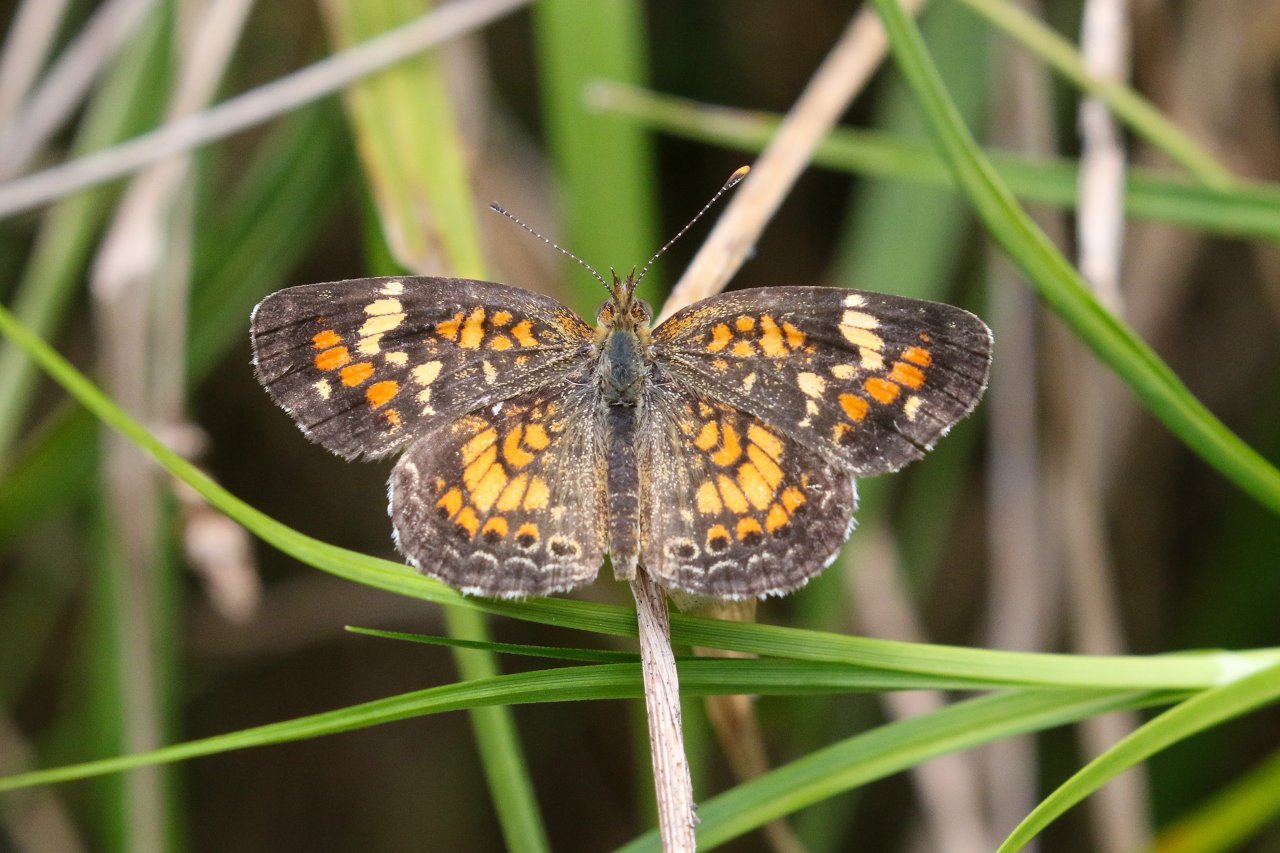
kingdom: Animalia
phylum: Arthropoda
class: Insecta
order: Lepidoptera
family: Nymphalidae
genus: Phyciodes
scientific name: Phyciodes phaon
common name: Phaon Crescent
